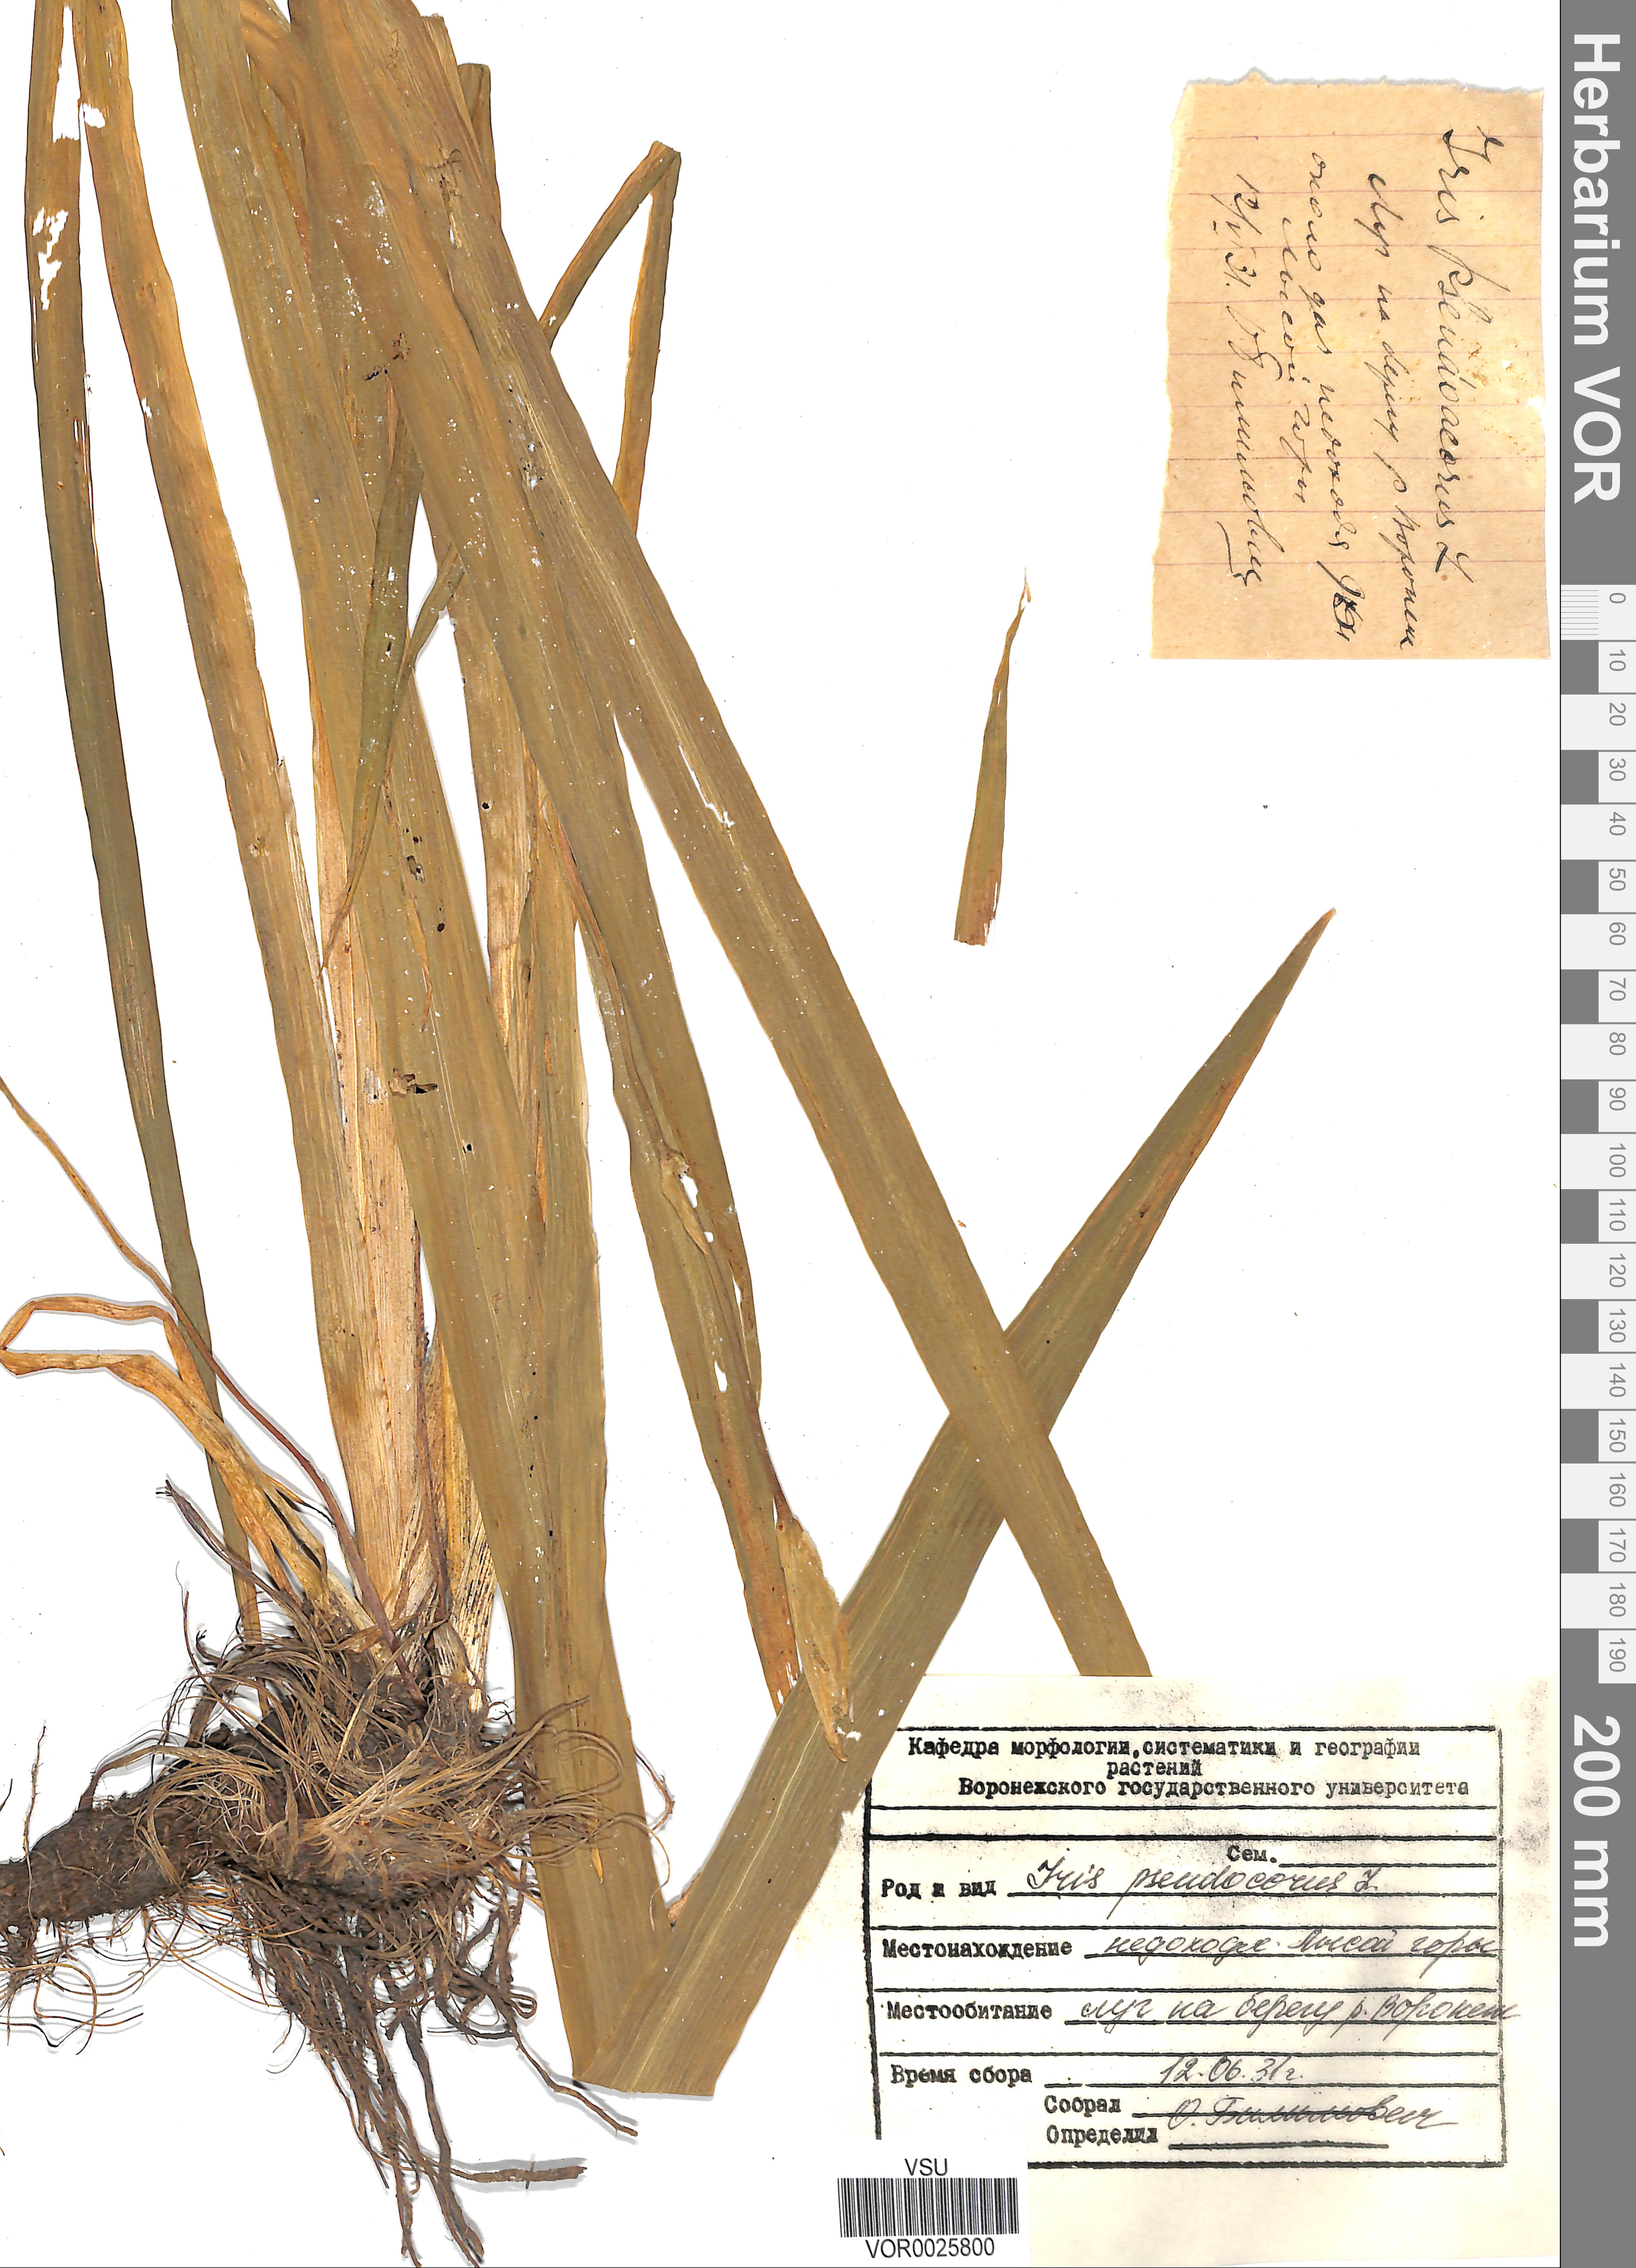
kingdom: Plantae
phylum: Tracheophyta
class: Liliopsida
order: Asparagales
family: Iridaceae
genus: Iris
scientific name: Iris pseudacorus
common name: Yellow flag
